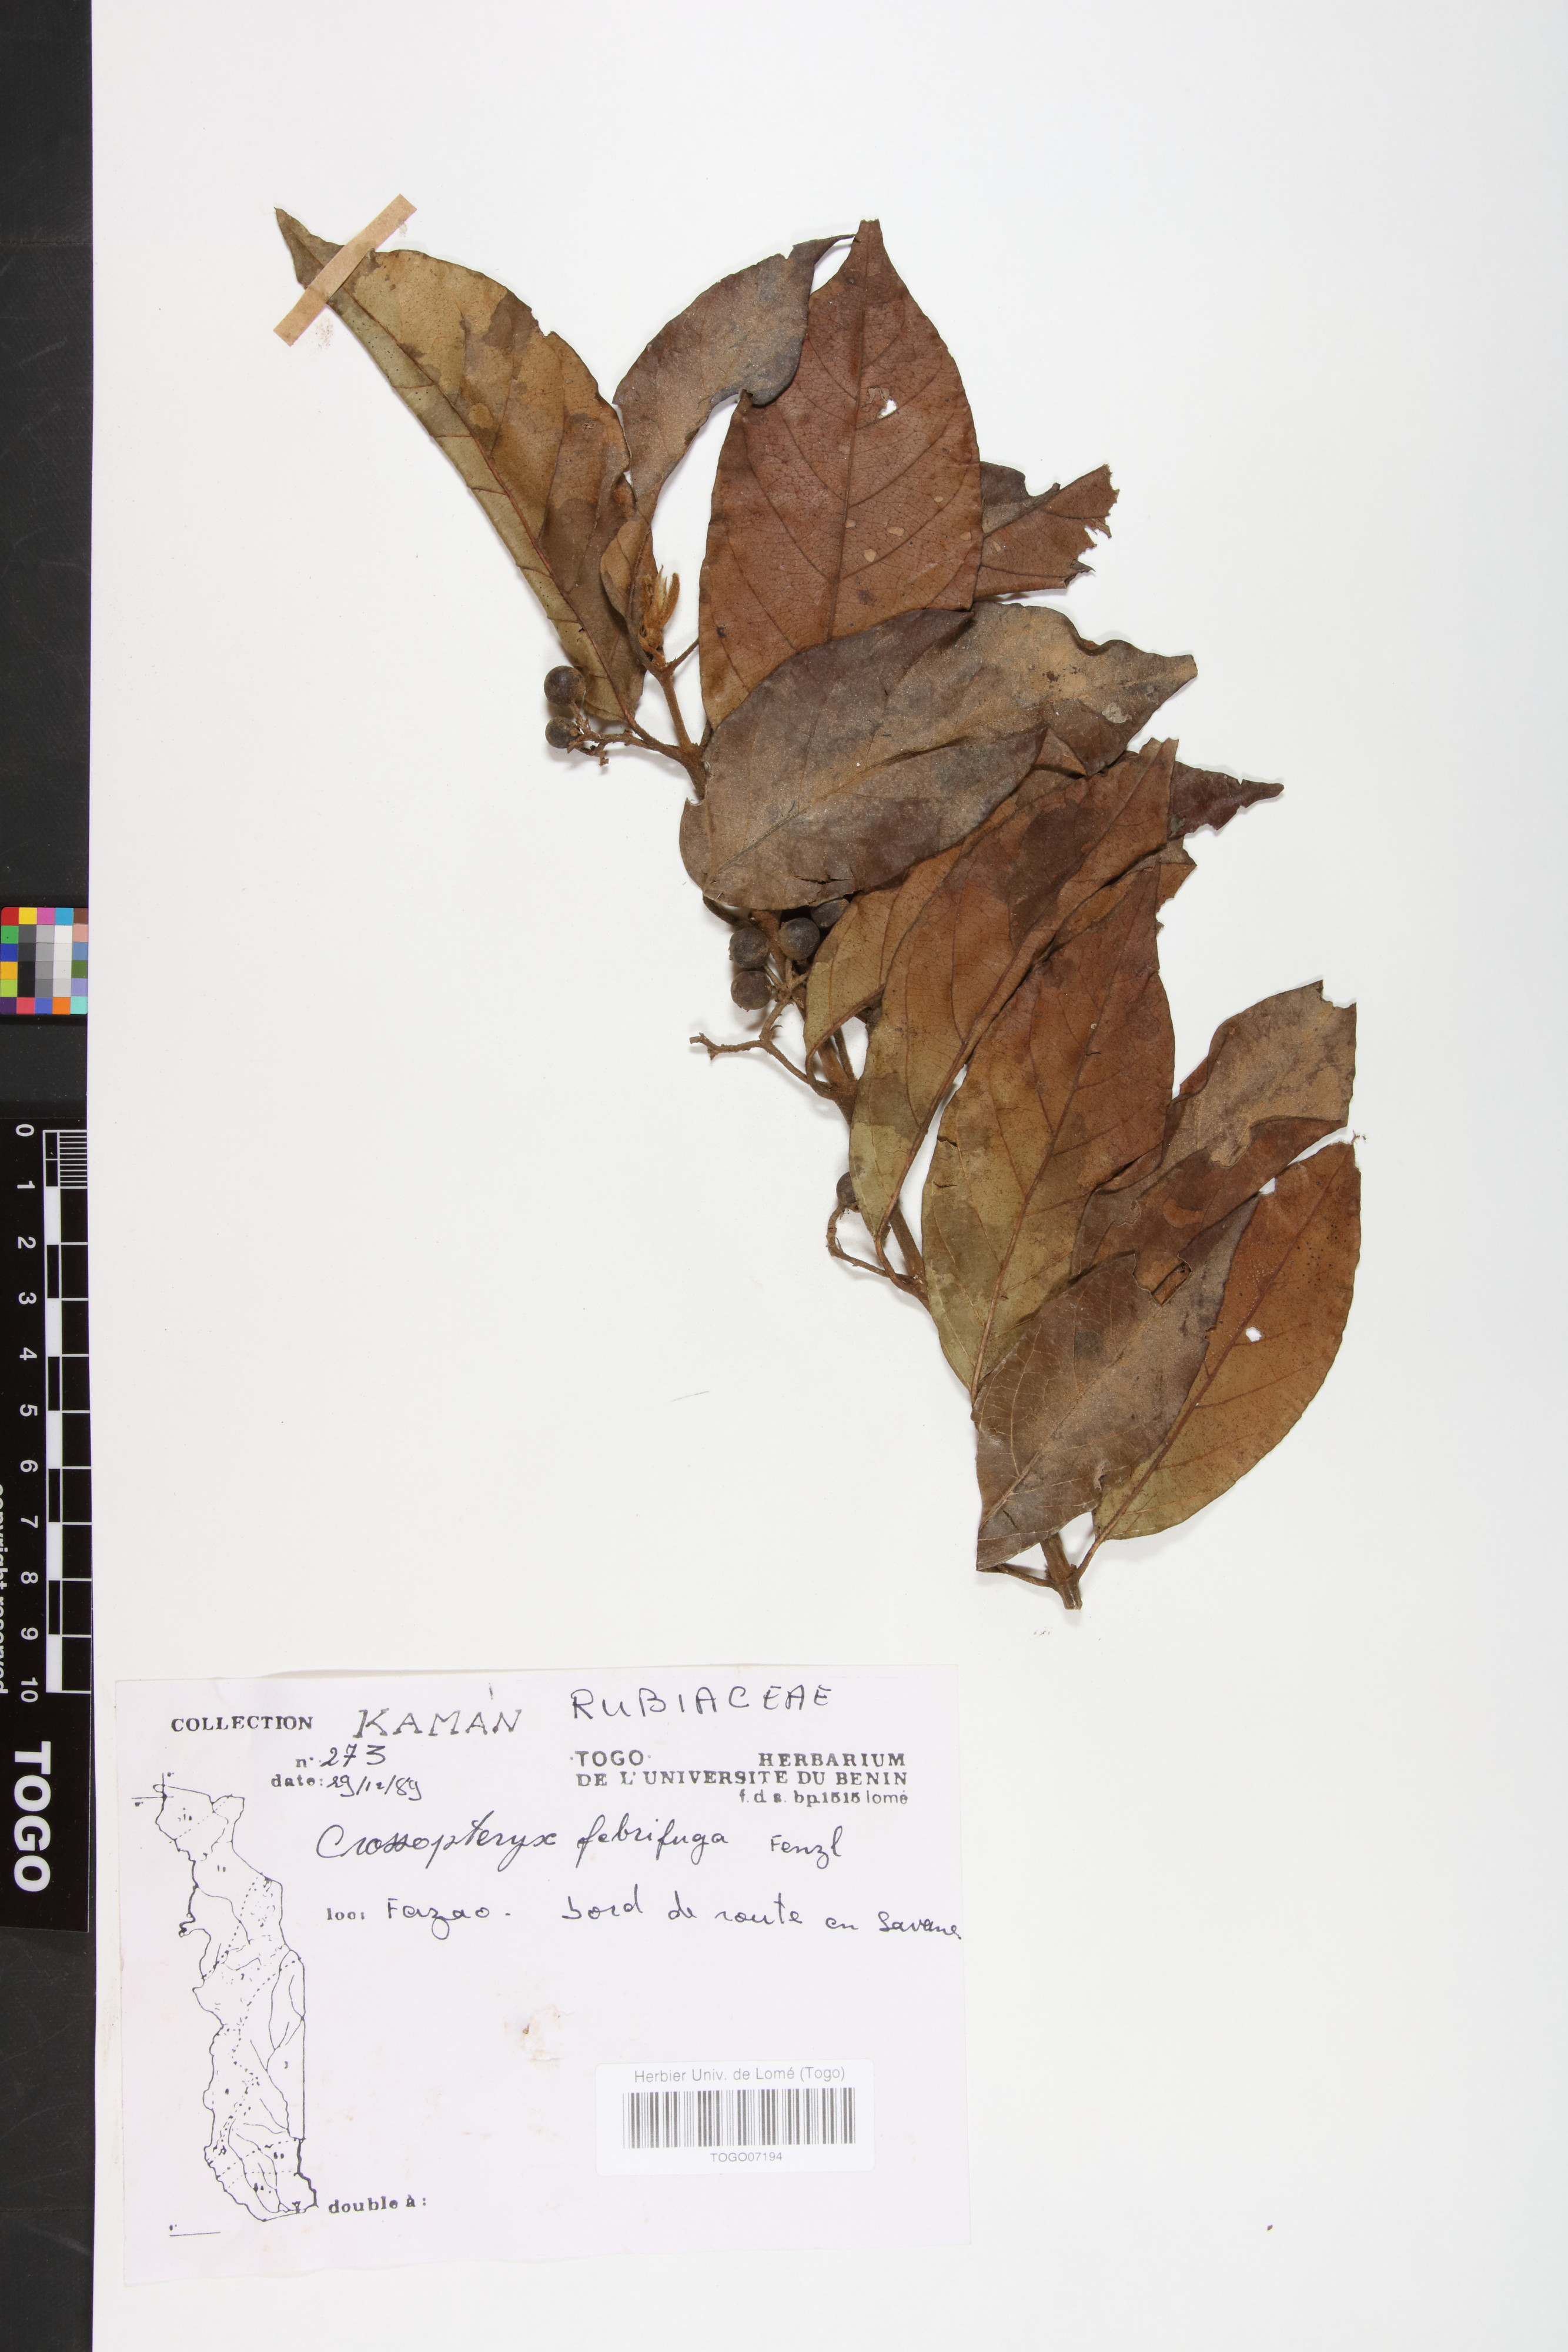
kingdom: Plantae
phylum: Tracheophyta
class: Magnoliopsida
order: Gentianales
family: Rubiaceae
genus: Crossopteryx
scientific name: Crossopteryx febrifuga
